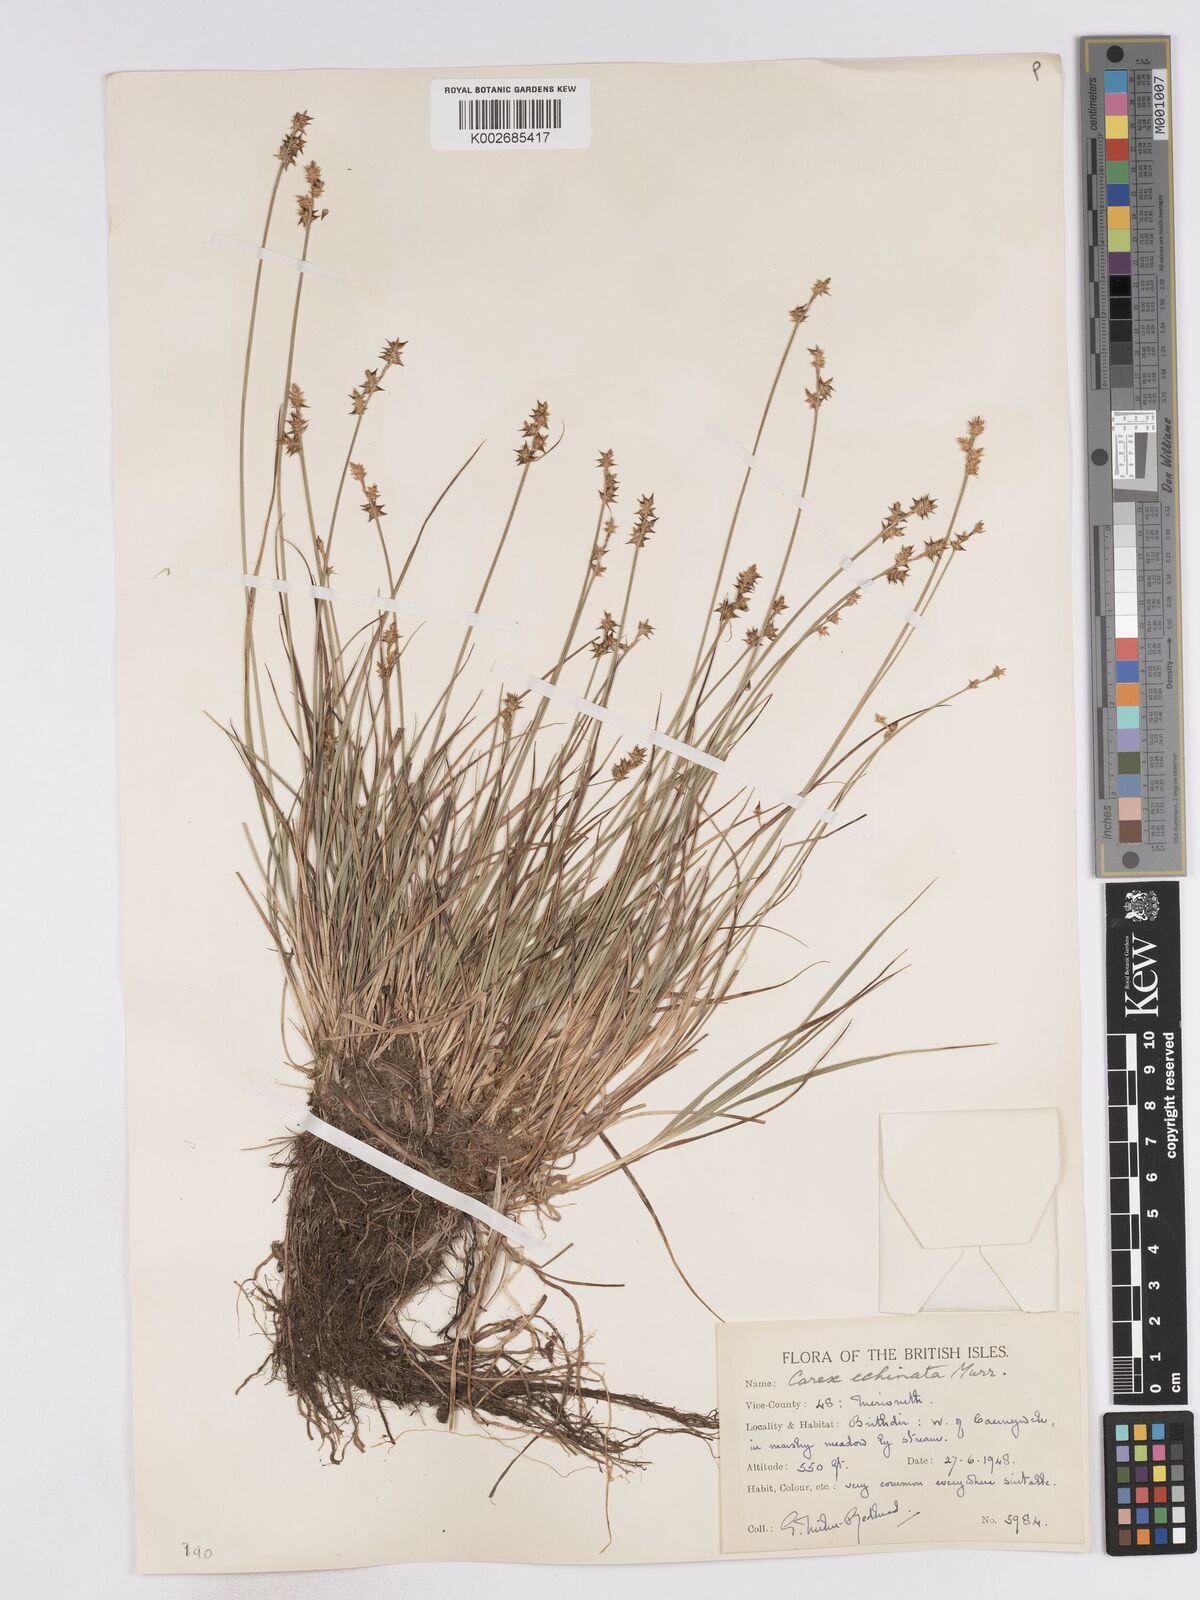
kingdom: Plantae
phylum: Tracheophyta
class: Liliopsida
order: Poales
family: Cyperaceae
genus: Carex
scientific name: Carex hispida
